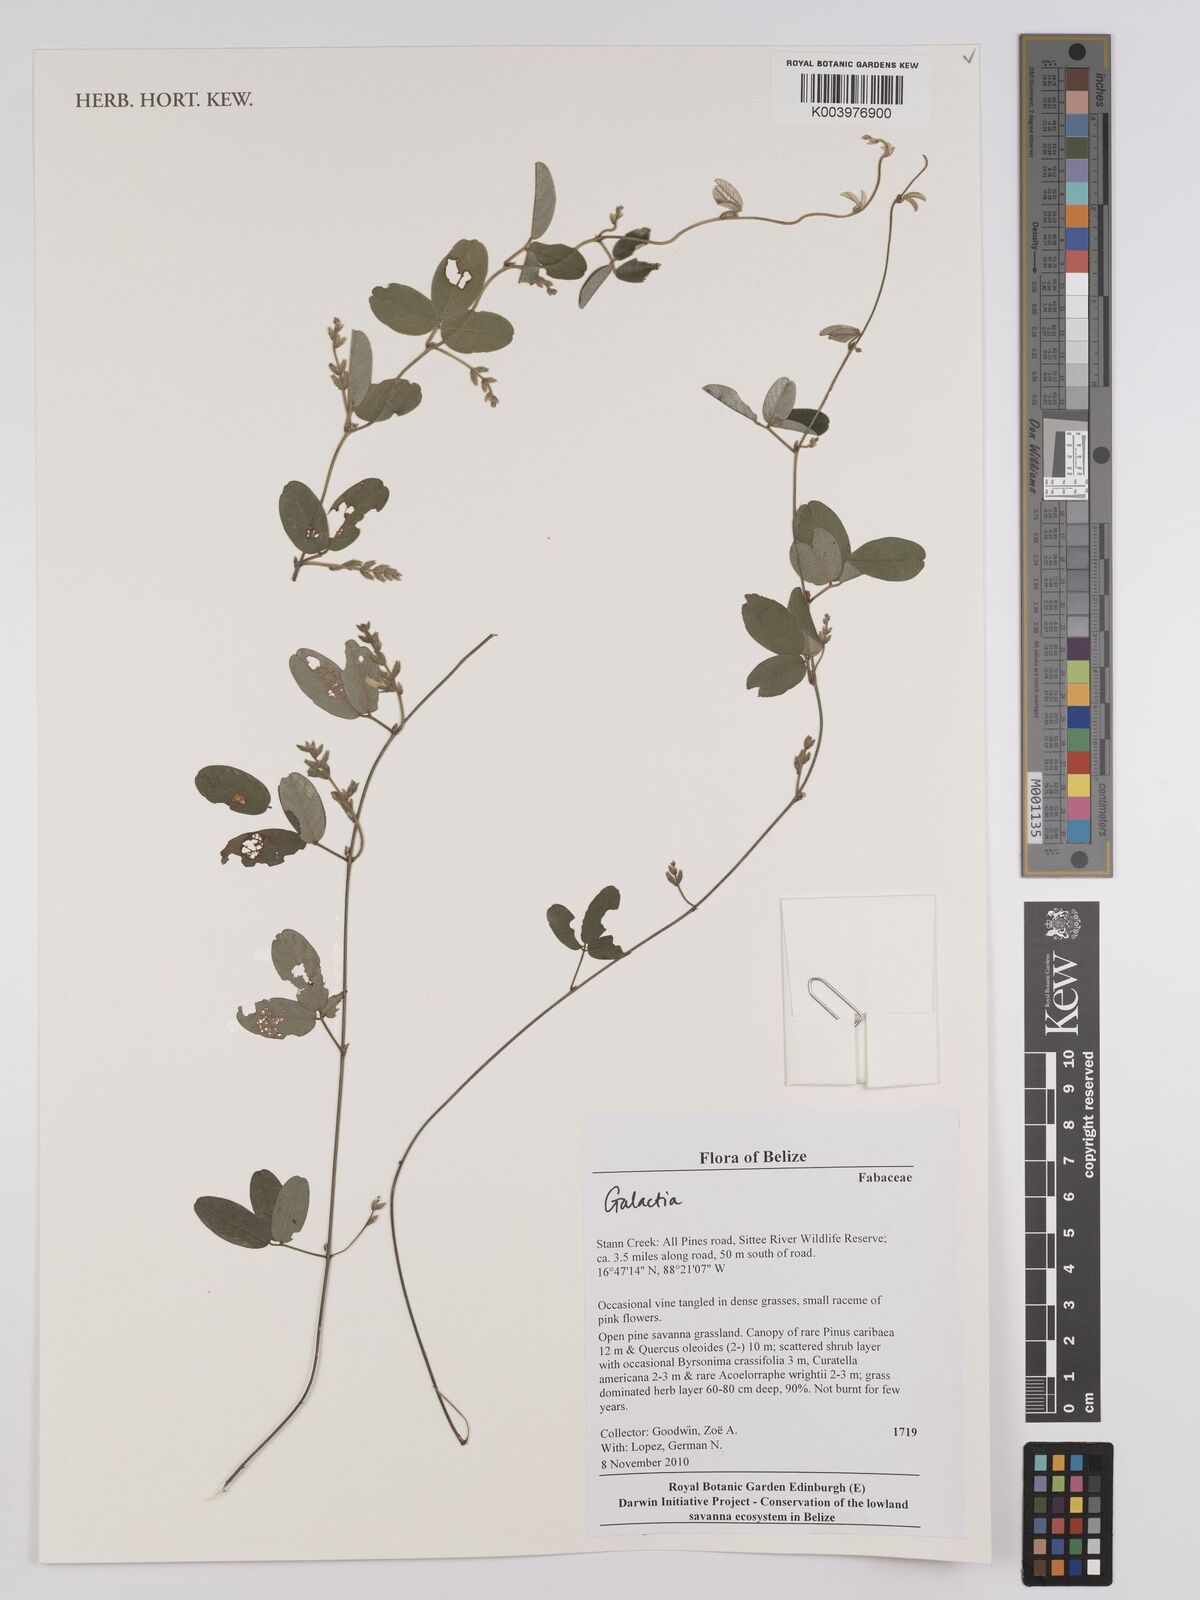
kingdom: Plantae
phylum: Tracheophyta
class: Magnoliopsida
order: Fabales
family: Fabaceae
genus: Galactia
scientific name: Galactia
